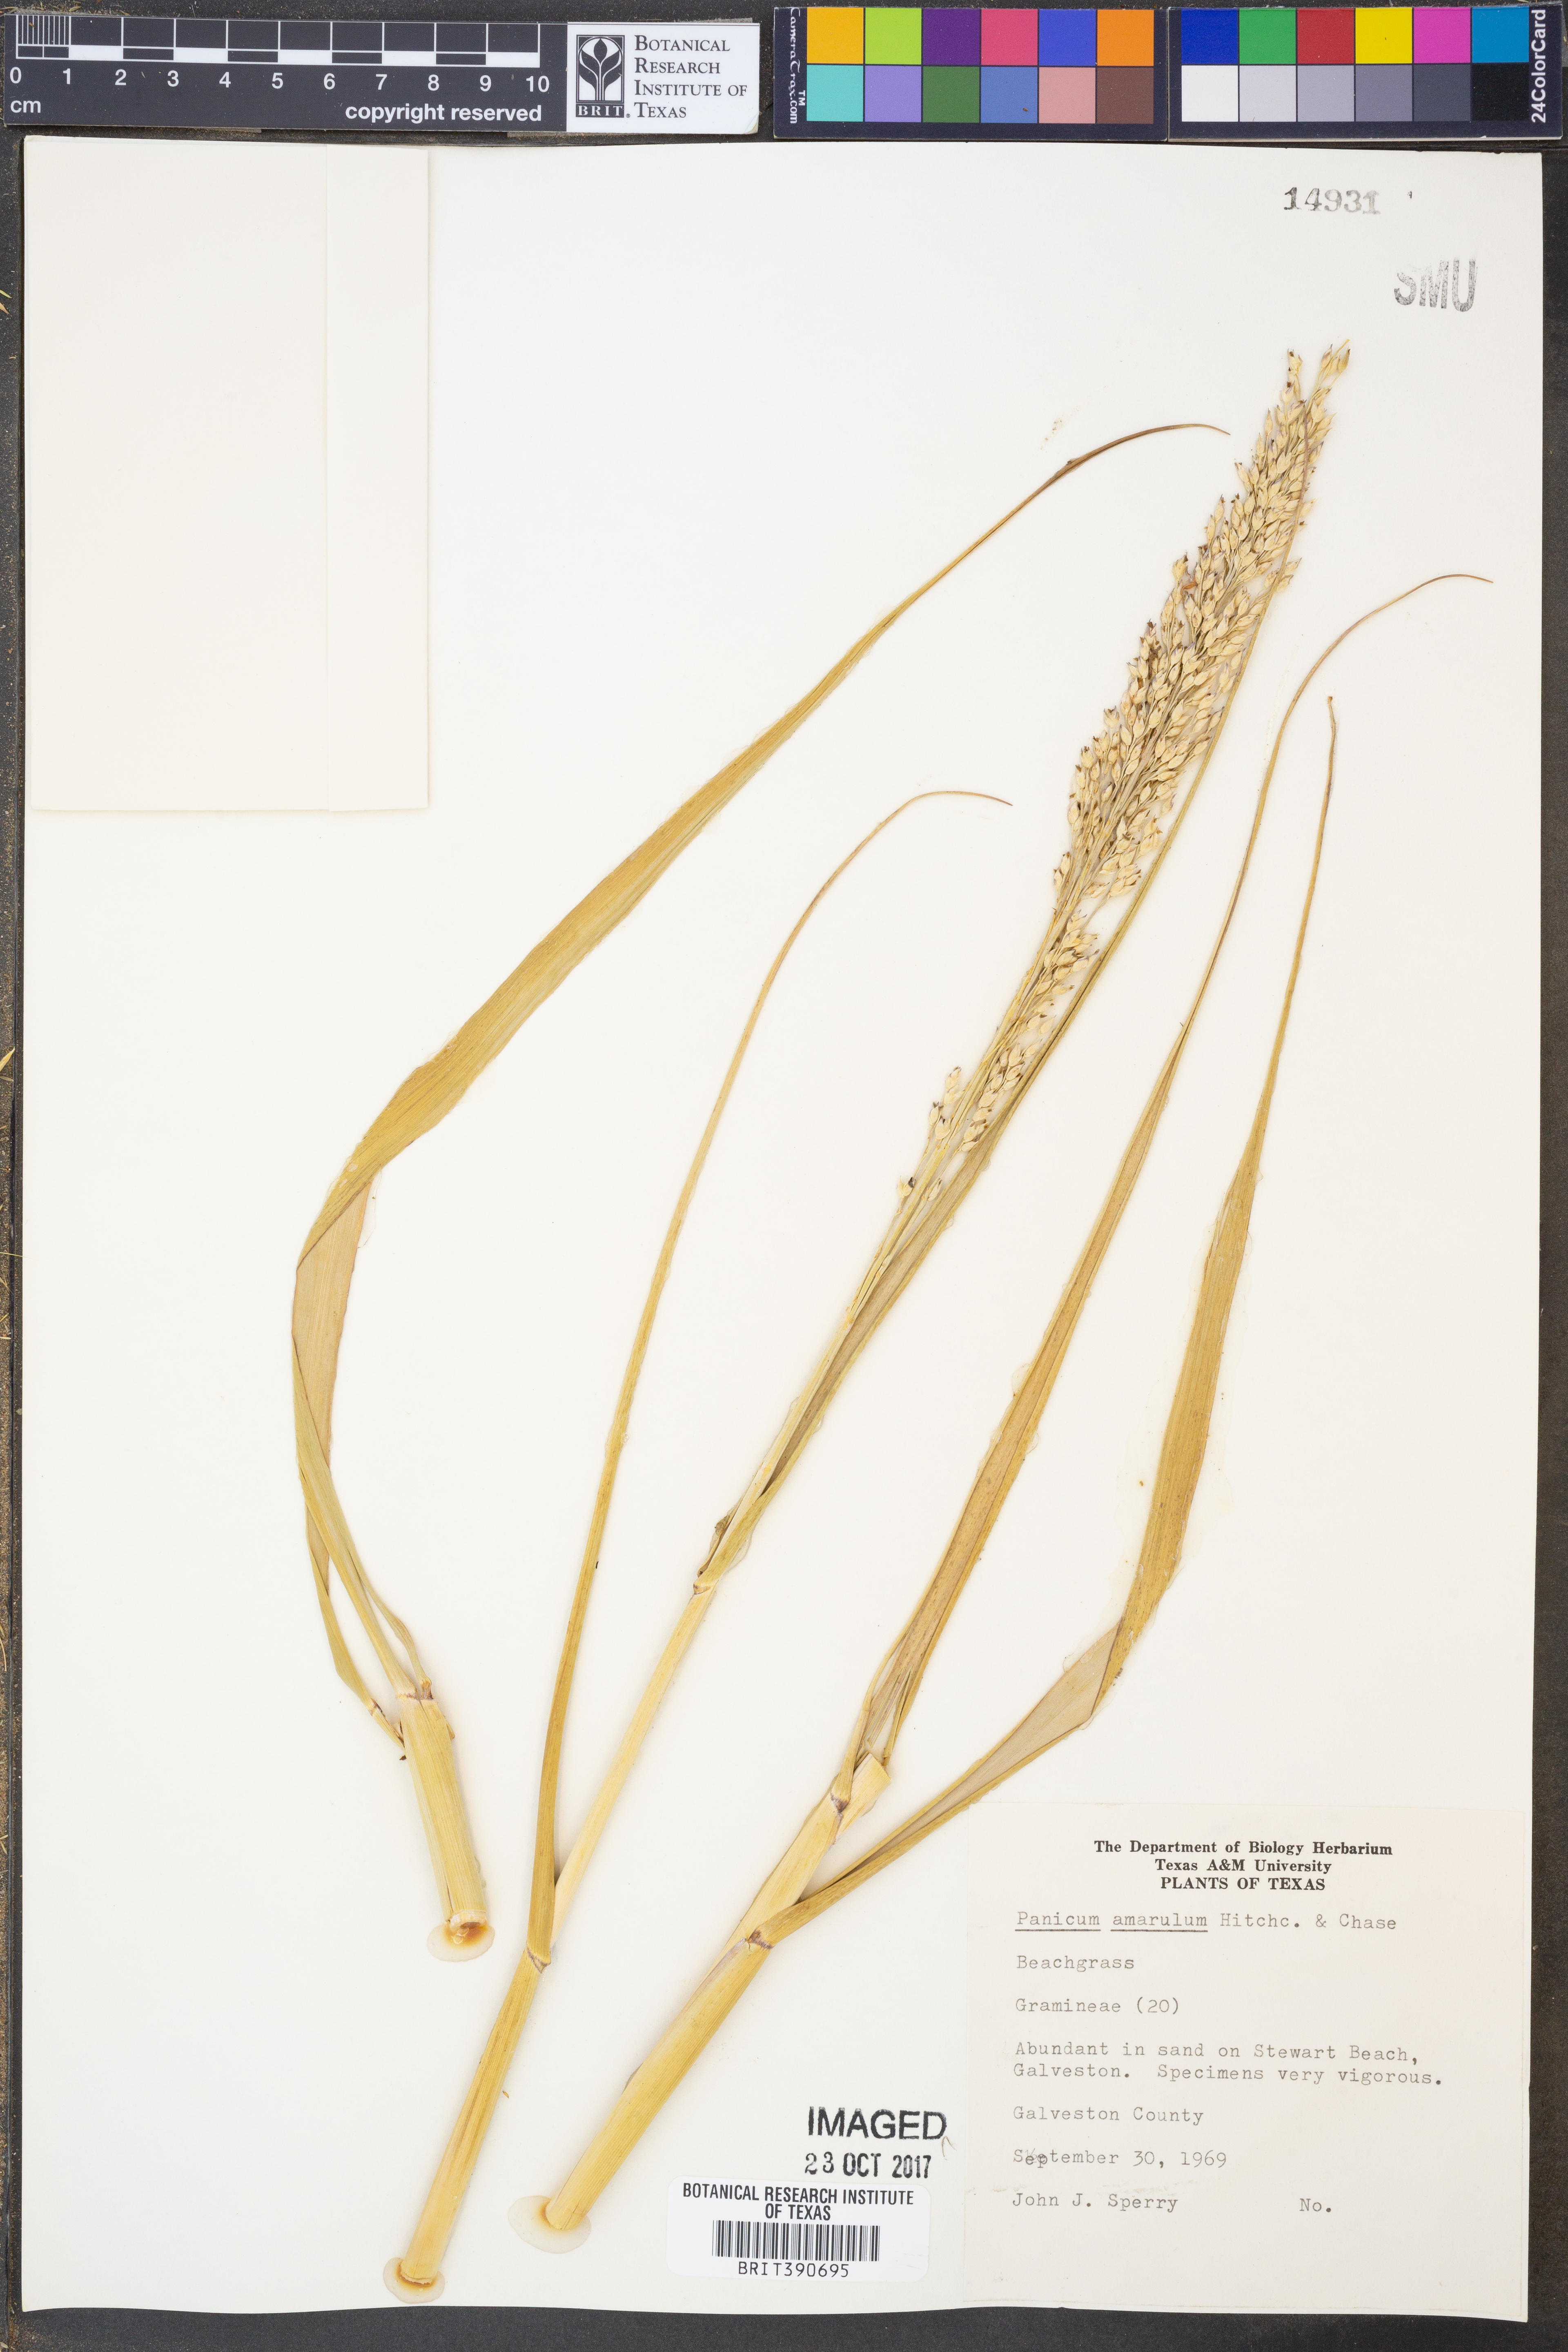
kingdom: Plantae
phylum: Tracheophyta
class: Liliopsida
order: Poales
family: Poaceae
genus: Panicum
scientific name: Panicum amarum
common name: Bitter panicum
